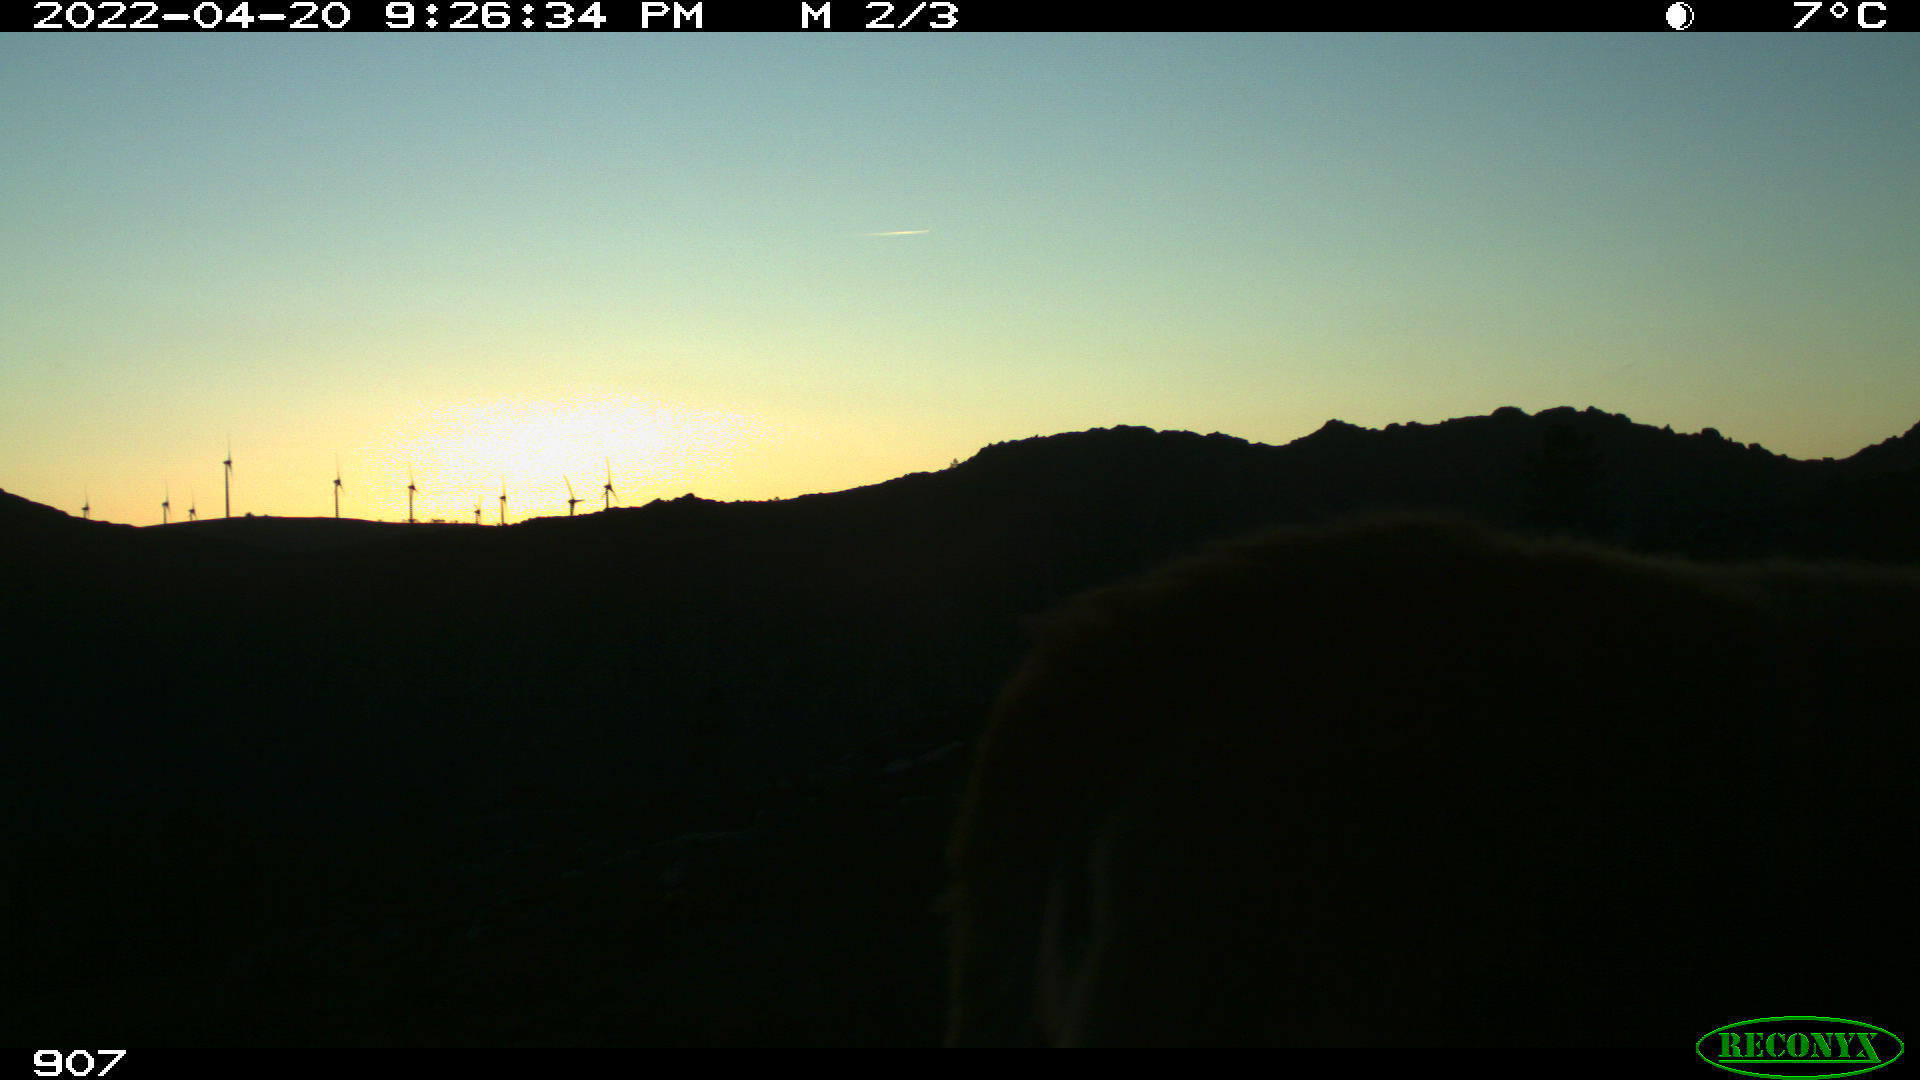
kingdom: Animalia
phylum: Chordata
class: Mammalia
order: Artiodactyla
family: Bovidae
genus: Bos
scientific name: Bos taurus
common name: Domesticated cattle
